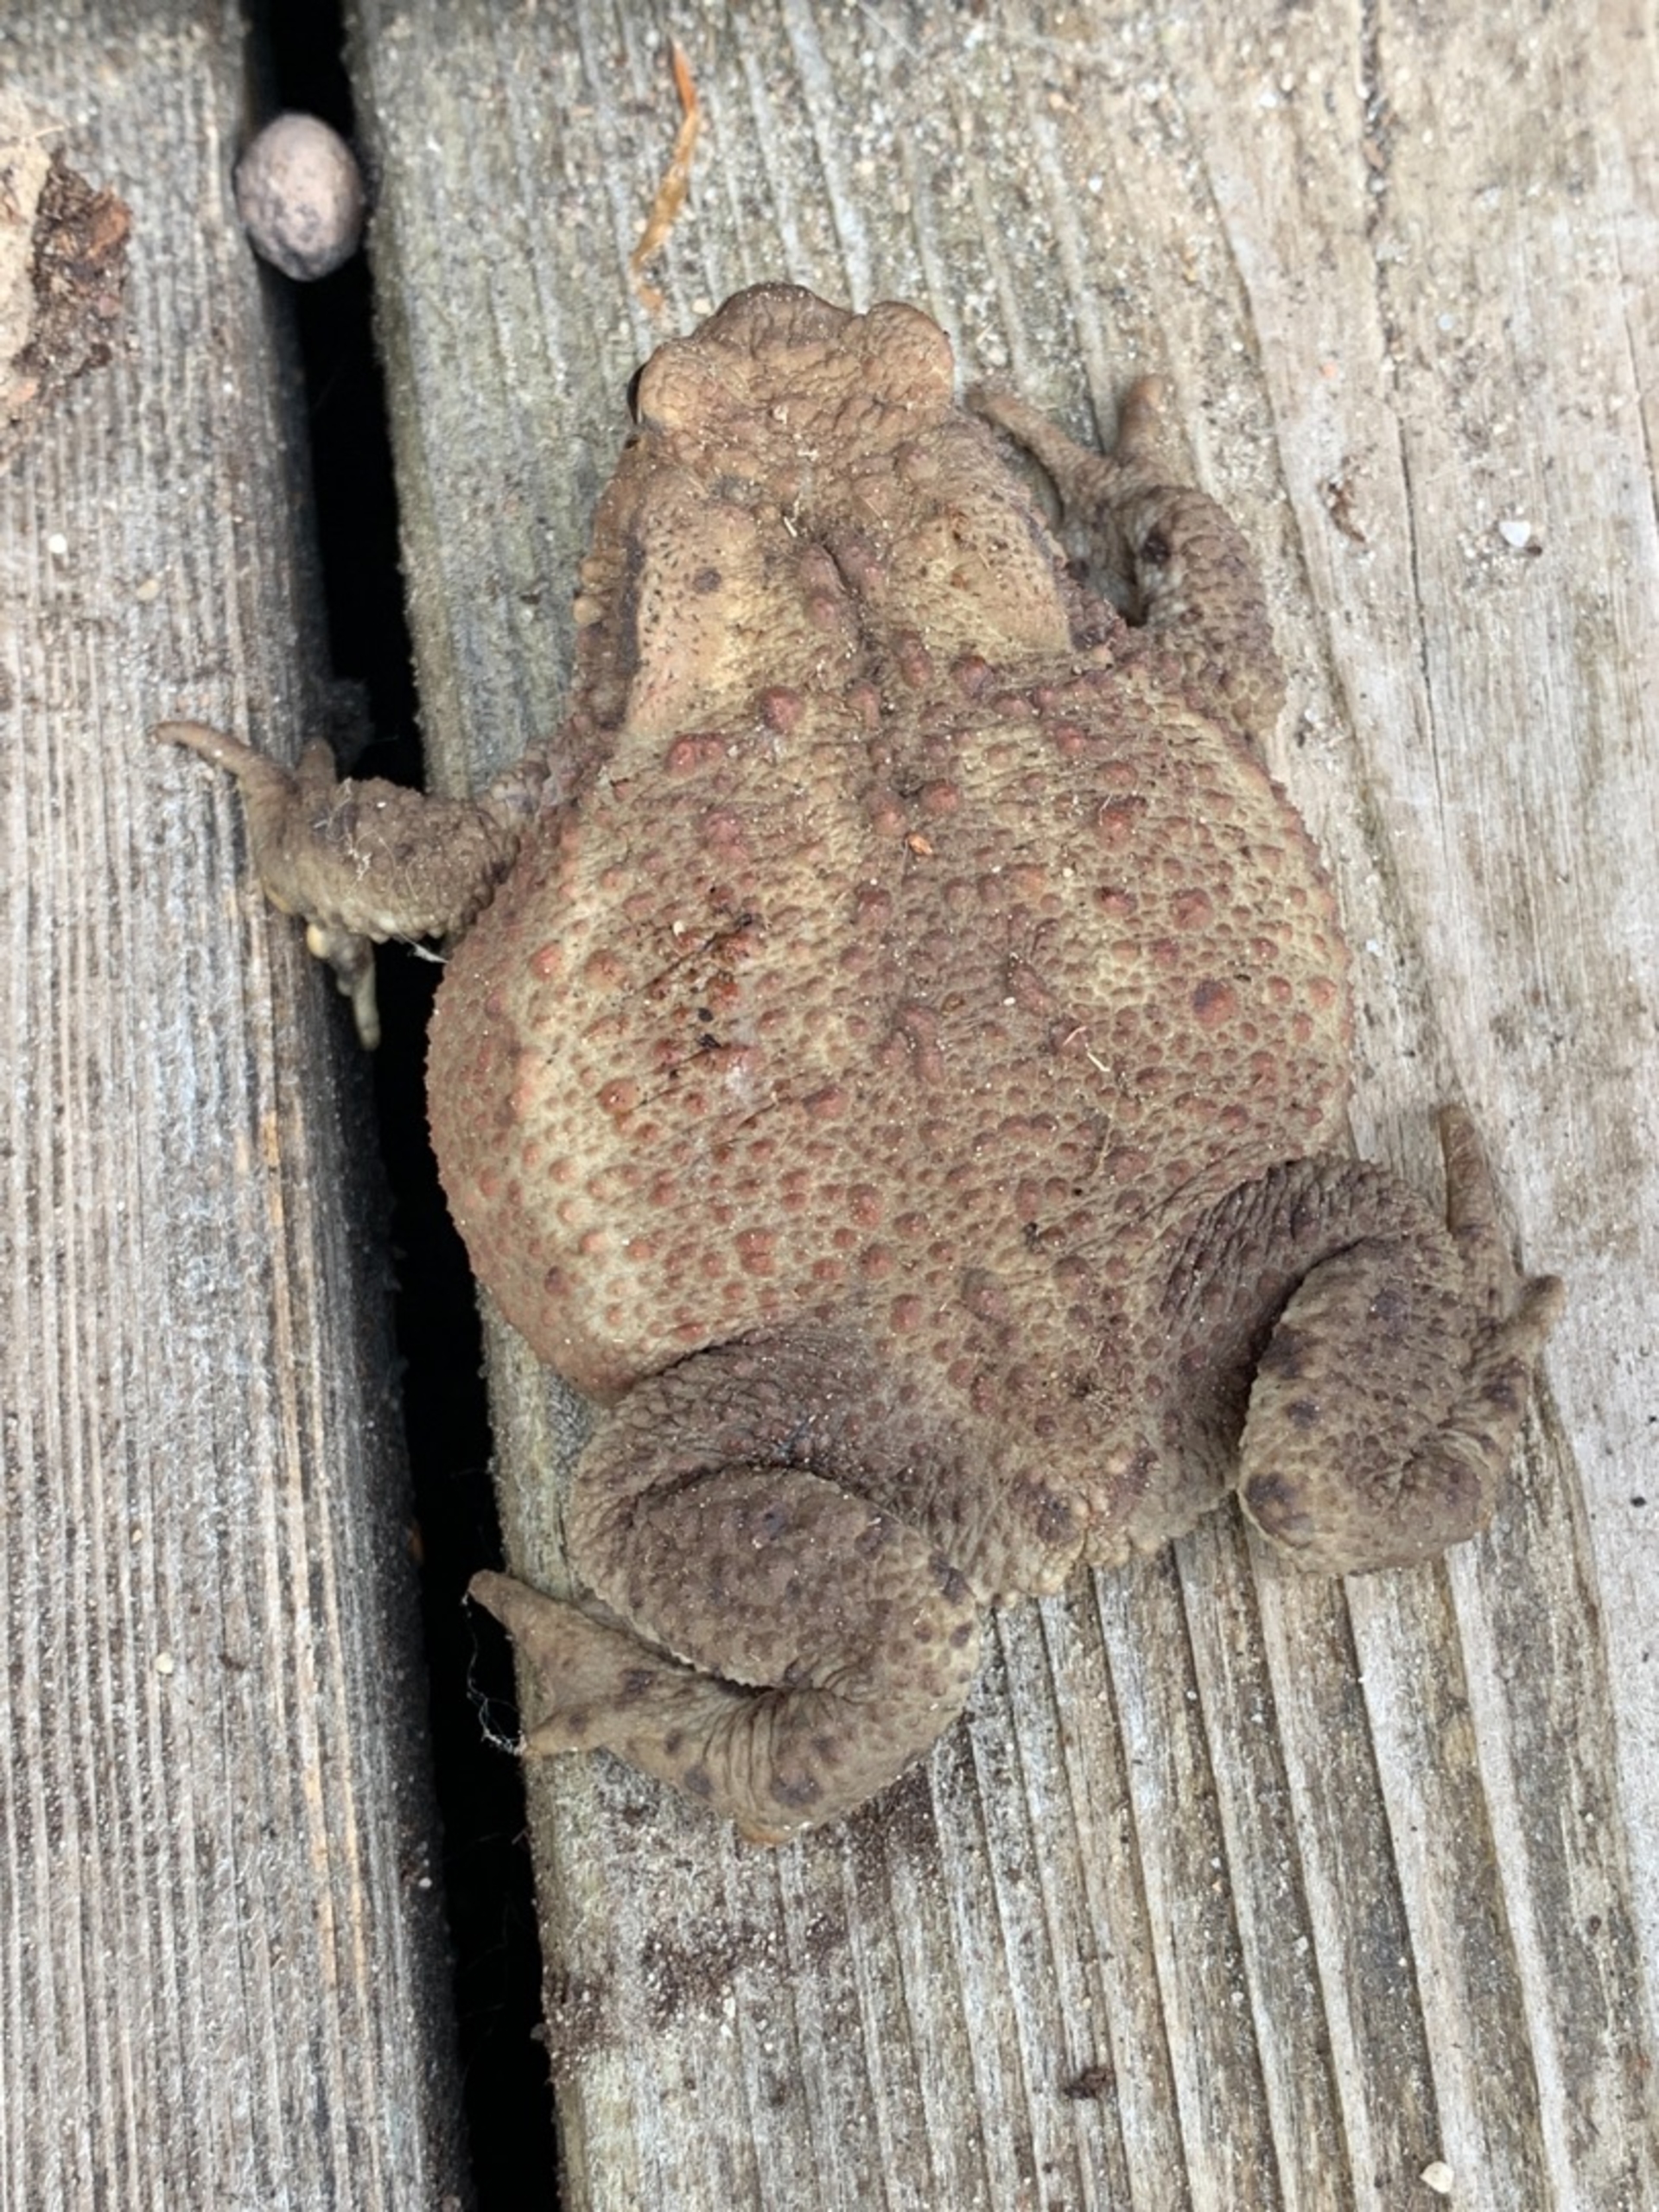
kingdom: Animalia
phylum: Chordata
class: Amphibia
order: Anura
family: Bufonidae
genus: Bufo
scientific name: Bufo bufo
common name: Skrubtudse
